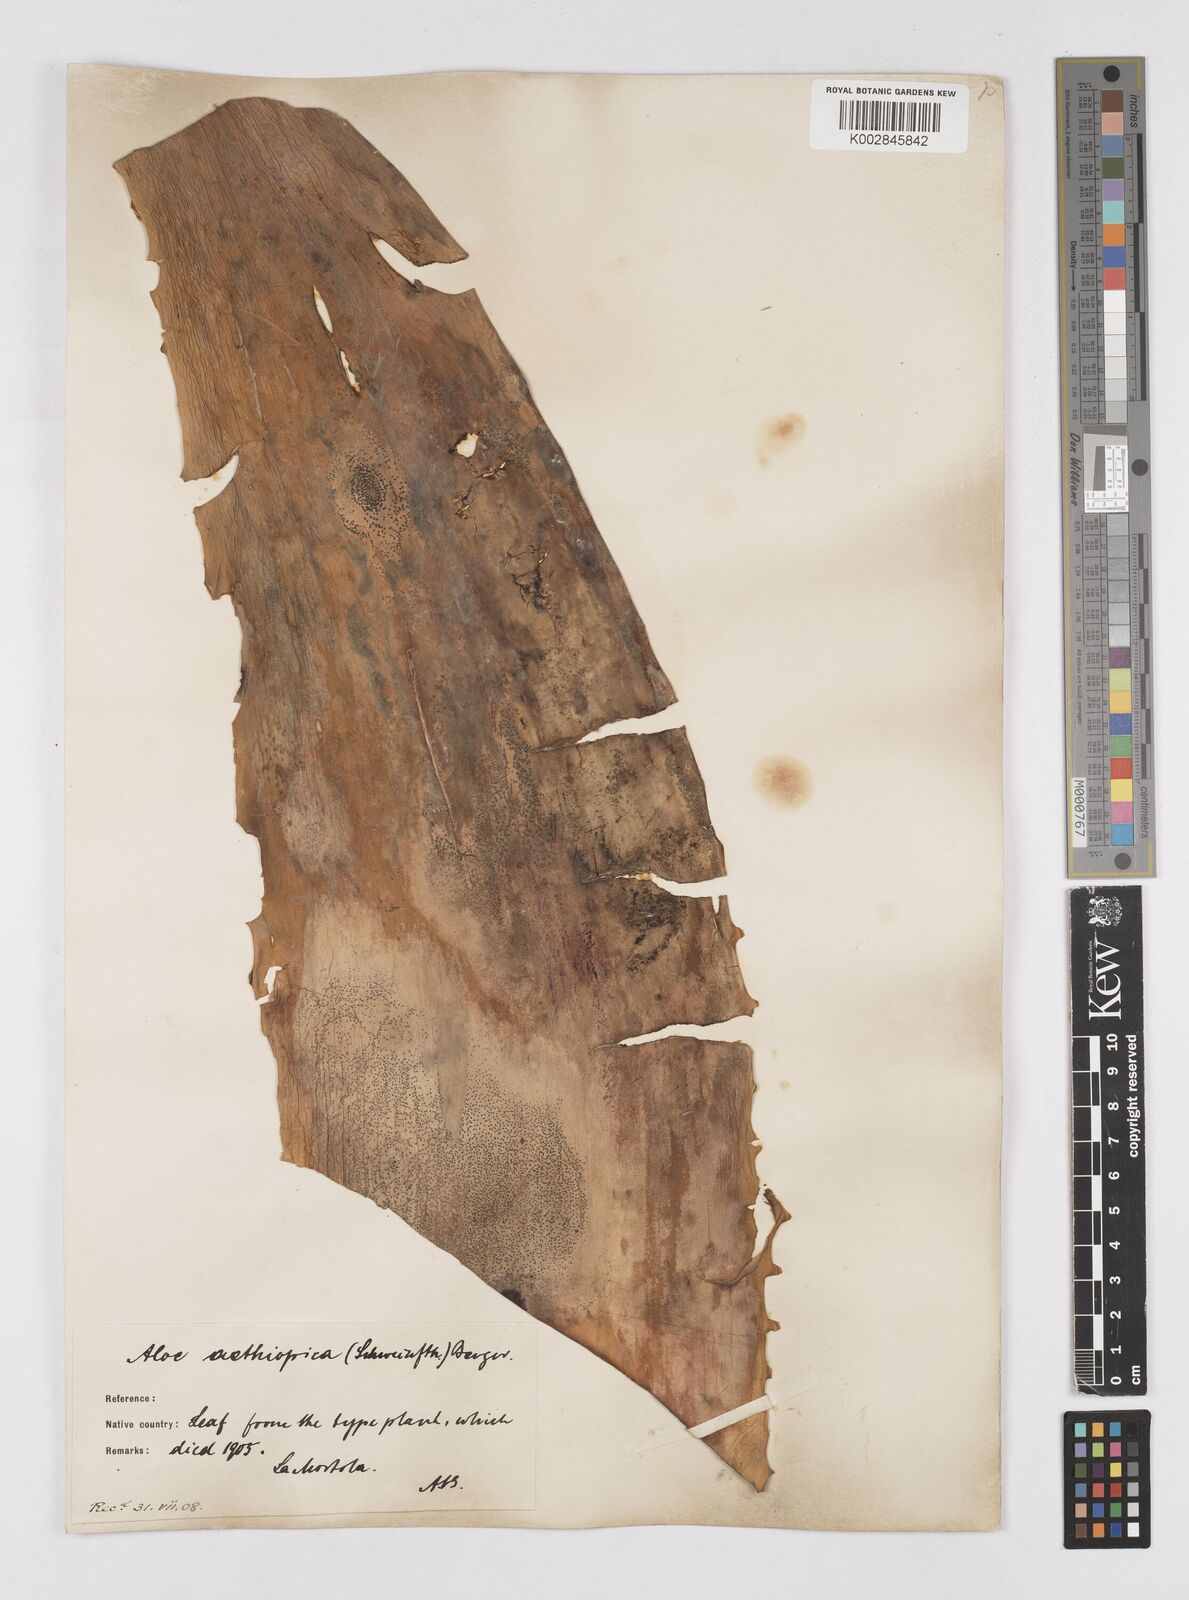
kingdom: Plantae
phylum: Tracheophyta
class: Liliopsida
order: Asparagales
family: Asphodelaceae
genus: Aloe
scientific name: Aloe elegans
